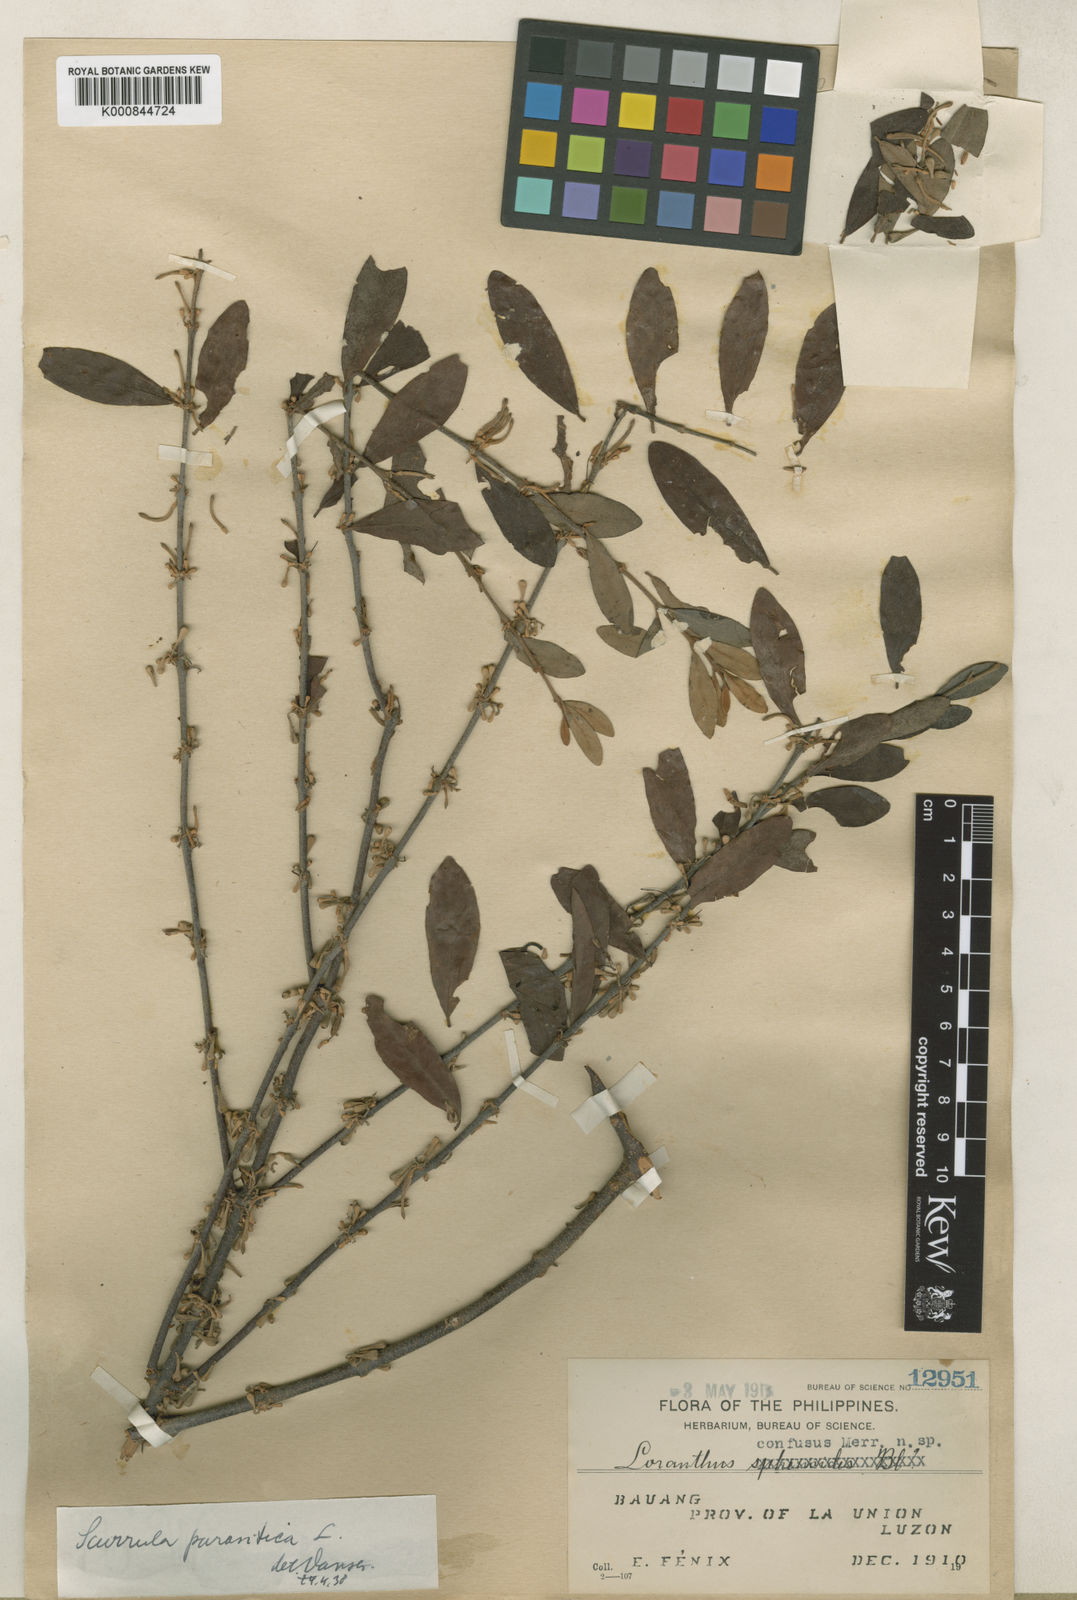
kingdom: Plantae
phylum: Tracheophyta
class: Magnoliopsida
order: Santalales
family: Loranthaceae
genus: Scurrula
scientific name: Scurrula parasitica
